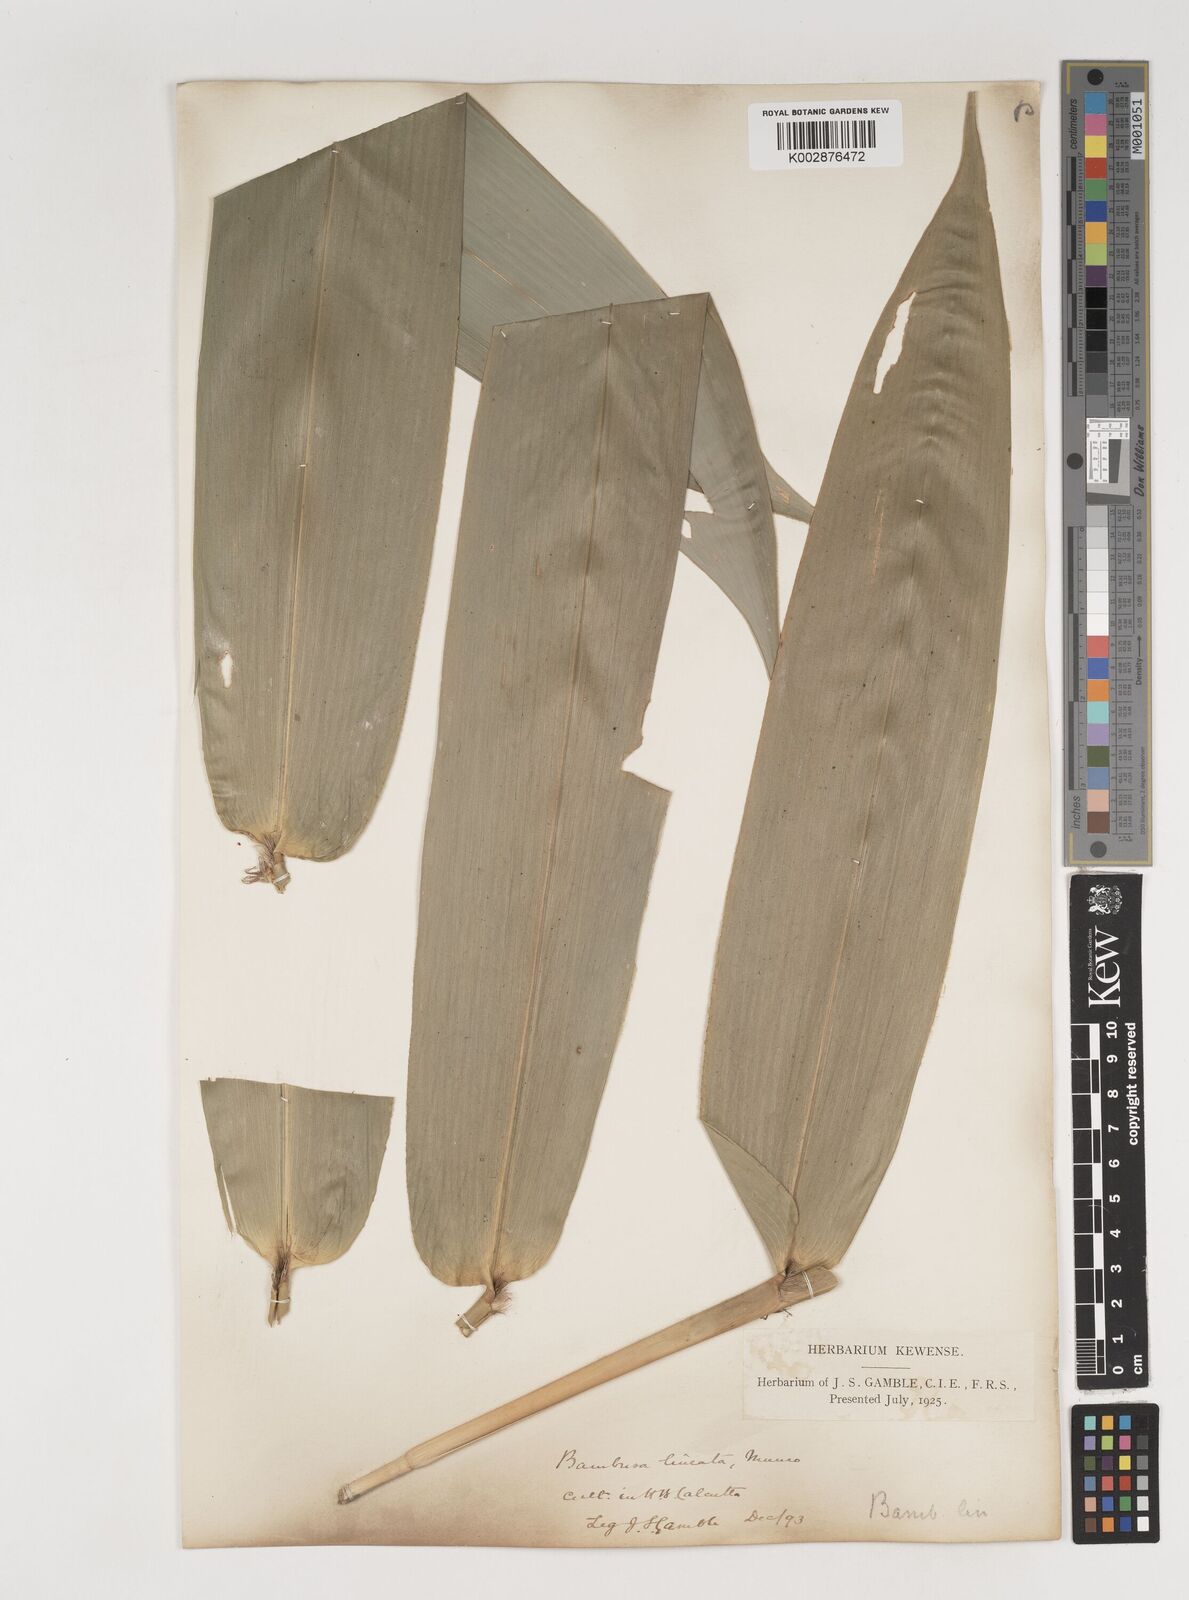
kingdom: Plantae
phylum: Tracheophyta
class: Liliopsida
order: Poales
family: Poaceae
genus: Neololeba
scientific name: Neololeba amahussana
